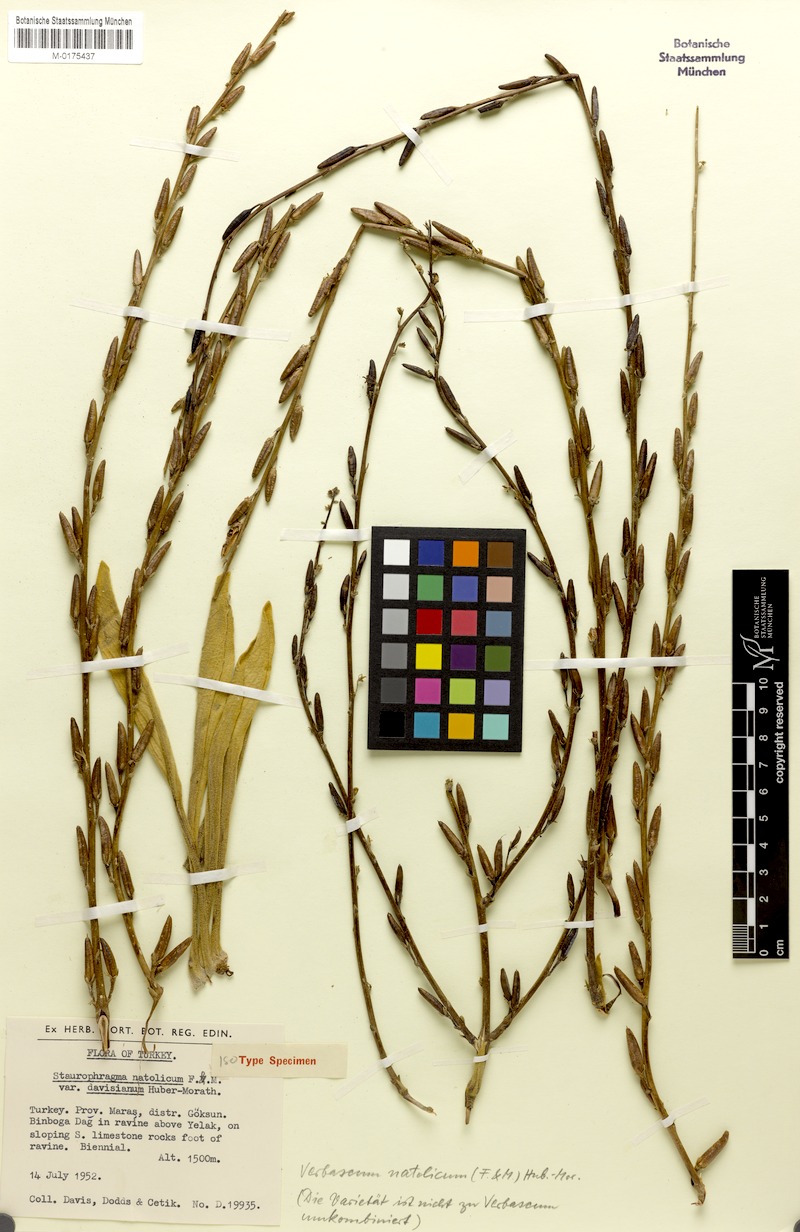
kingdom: Plantae
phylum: Tracheophyta
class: Magnoliopsida
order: Lamiales
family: Scrophulariaceae
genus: Verbascum
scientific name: Verbascum natolicum
